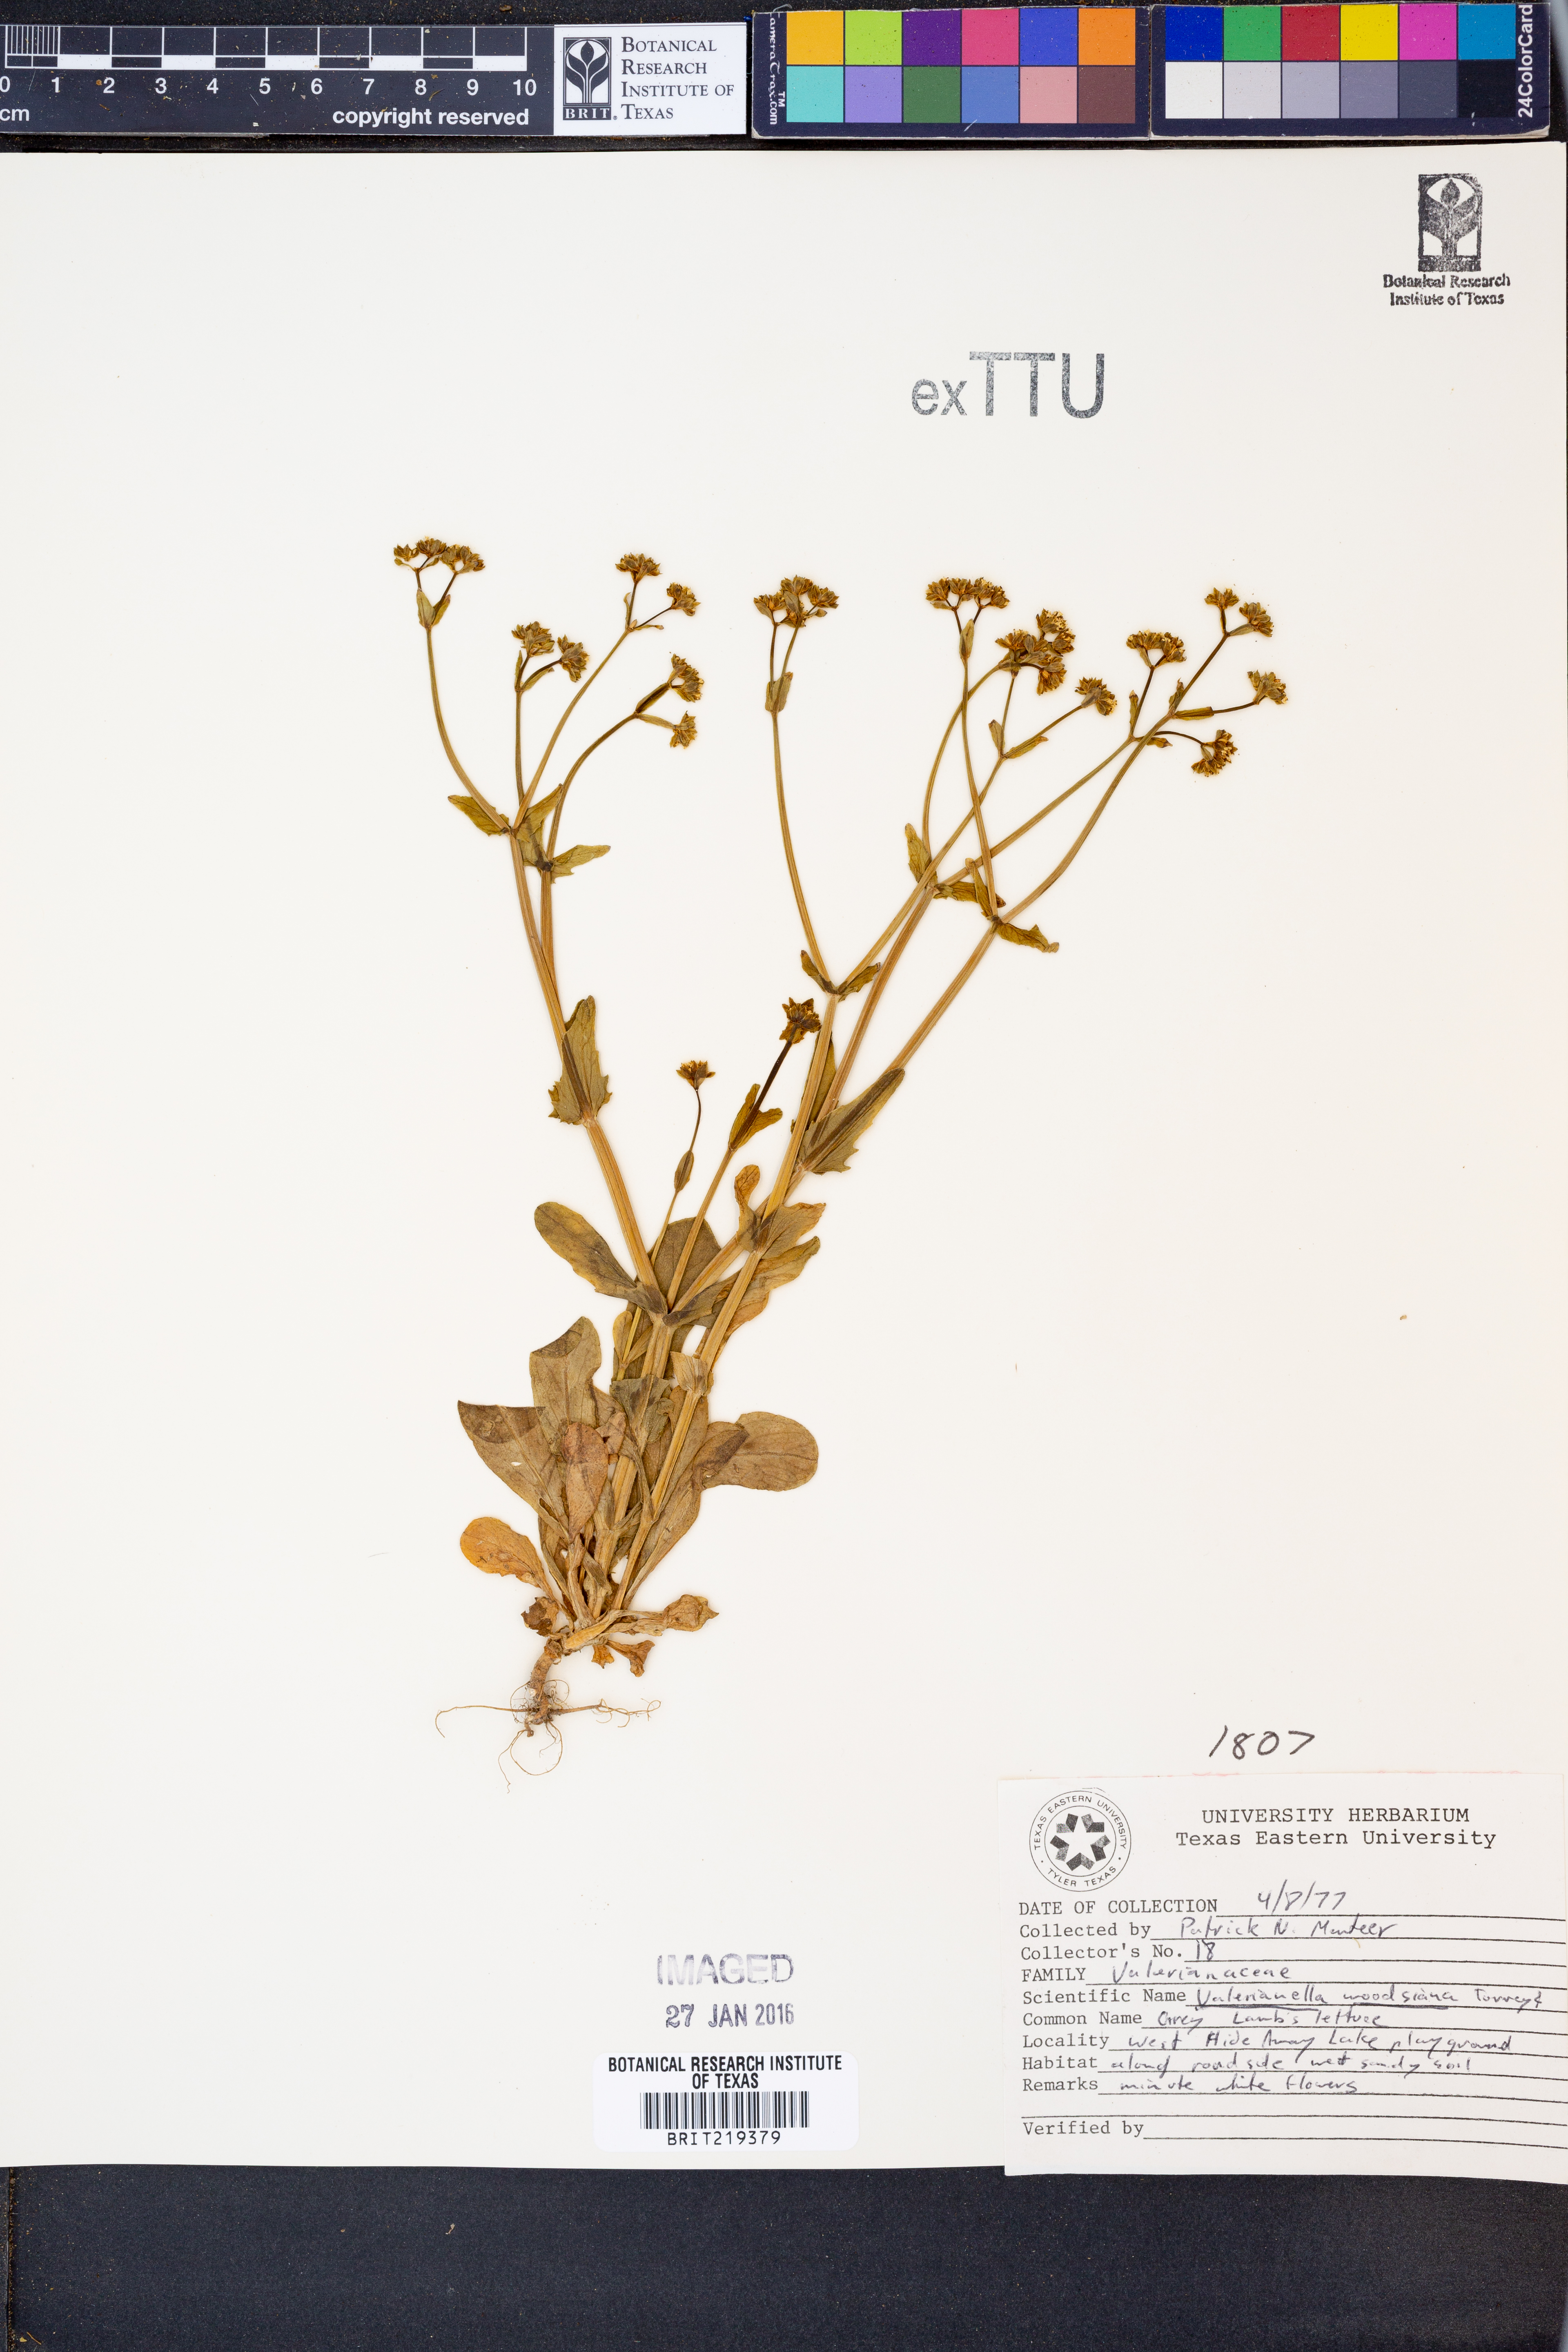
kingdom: Plantae
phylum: Tracheophyta
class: Magnoliopsida
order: Dipsacales
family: Caprifoliaceae
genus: Valerianella
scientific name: Valerianella radiata
